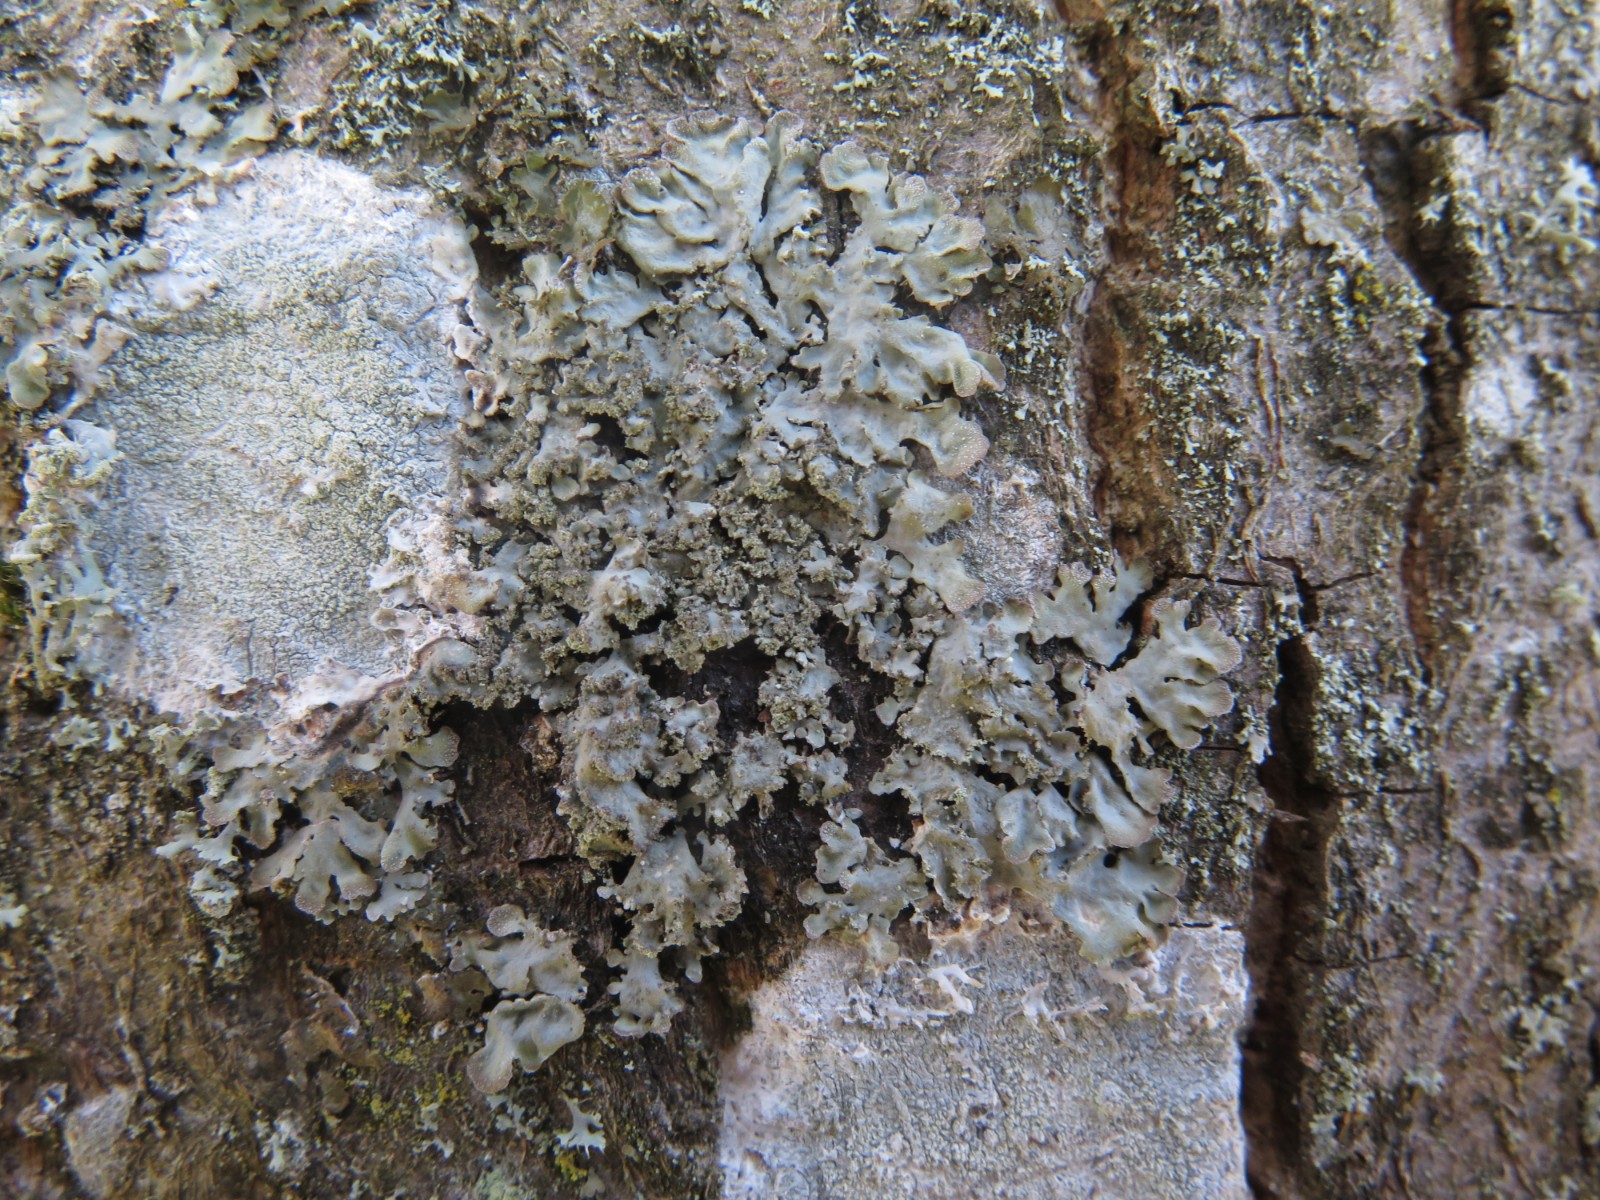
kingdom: Fungi
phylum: Ascomycota
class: Lecanoromycetes
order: Caliciales
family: Physciaceae
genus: Poeltonia
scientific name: Poeltonia grisea
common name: hvidgrå dugrosetlav
